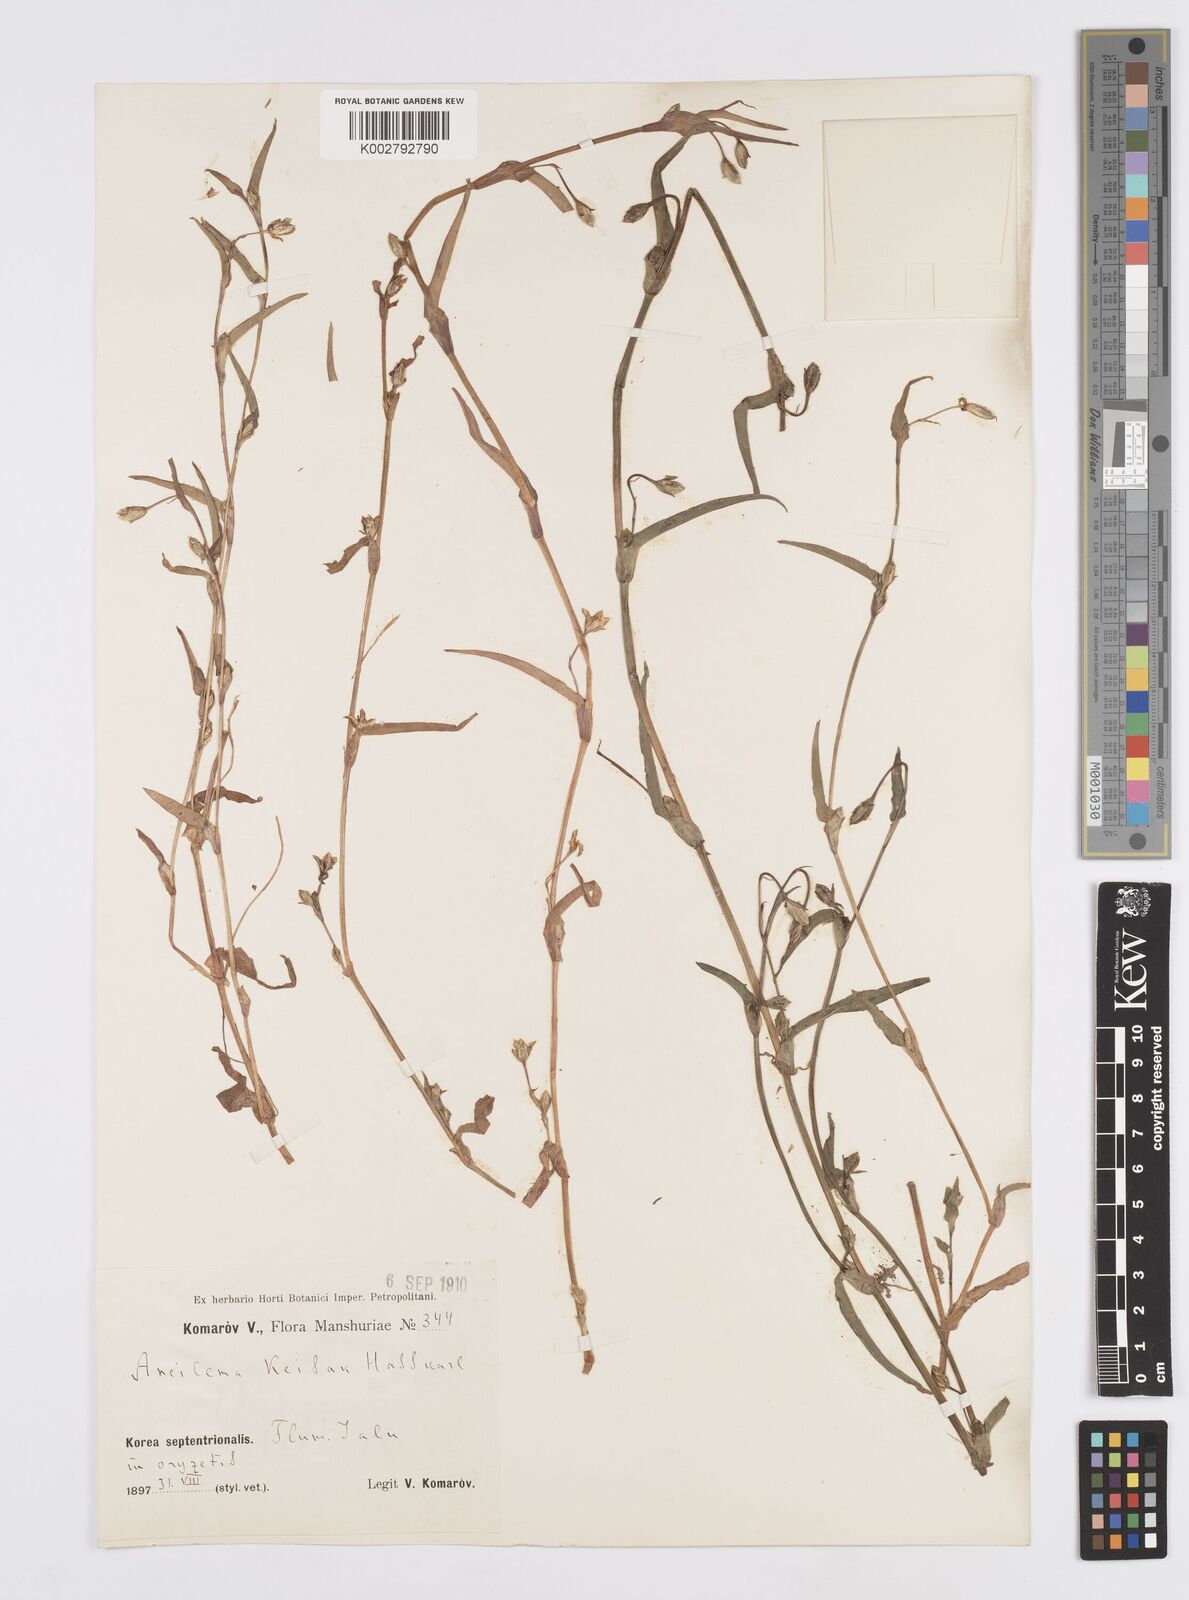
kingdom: Plantae
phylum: Tracheophyta
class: Liliopsida
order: Commelinales
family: Commelinaceae
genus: Murdannia
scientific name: Murdannia keisak
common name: Wartremoving herb
